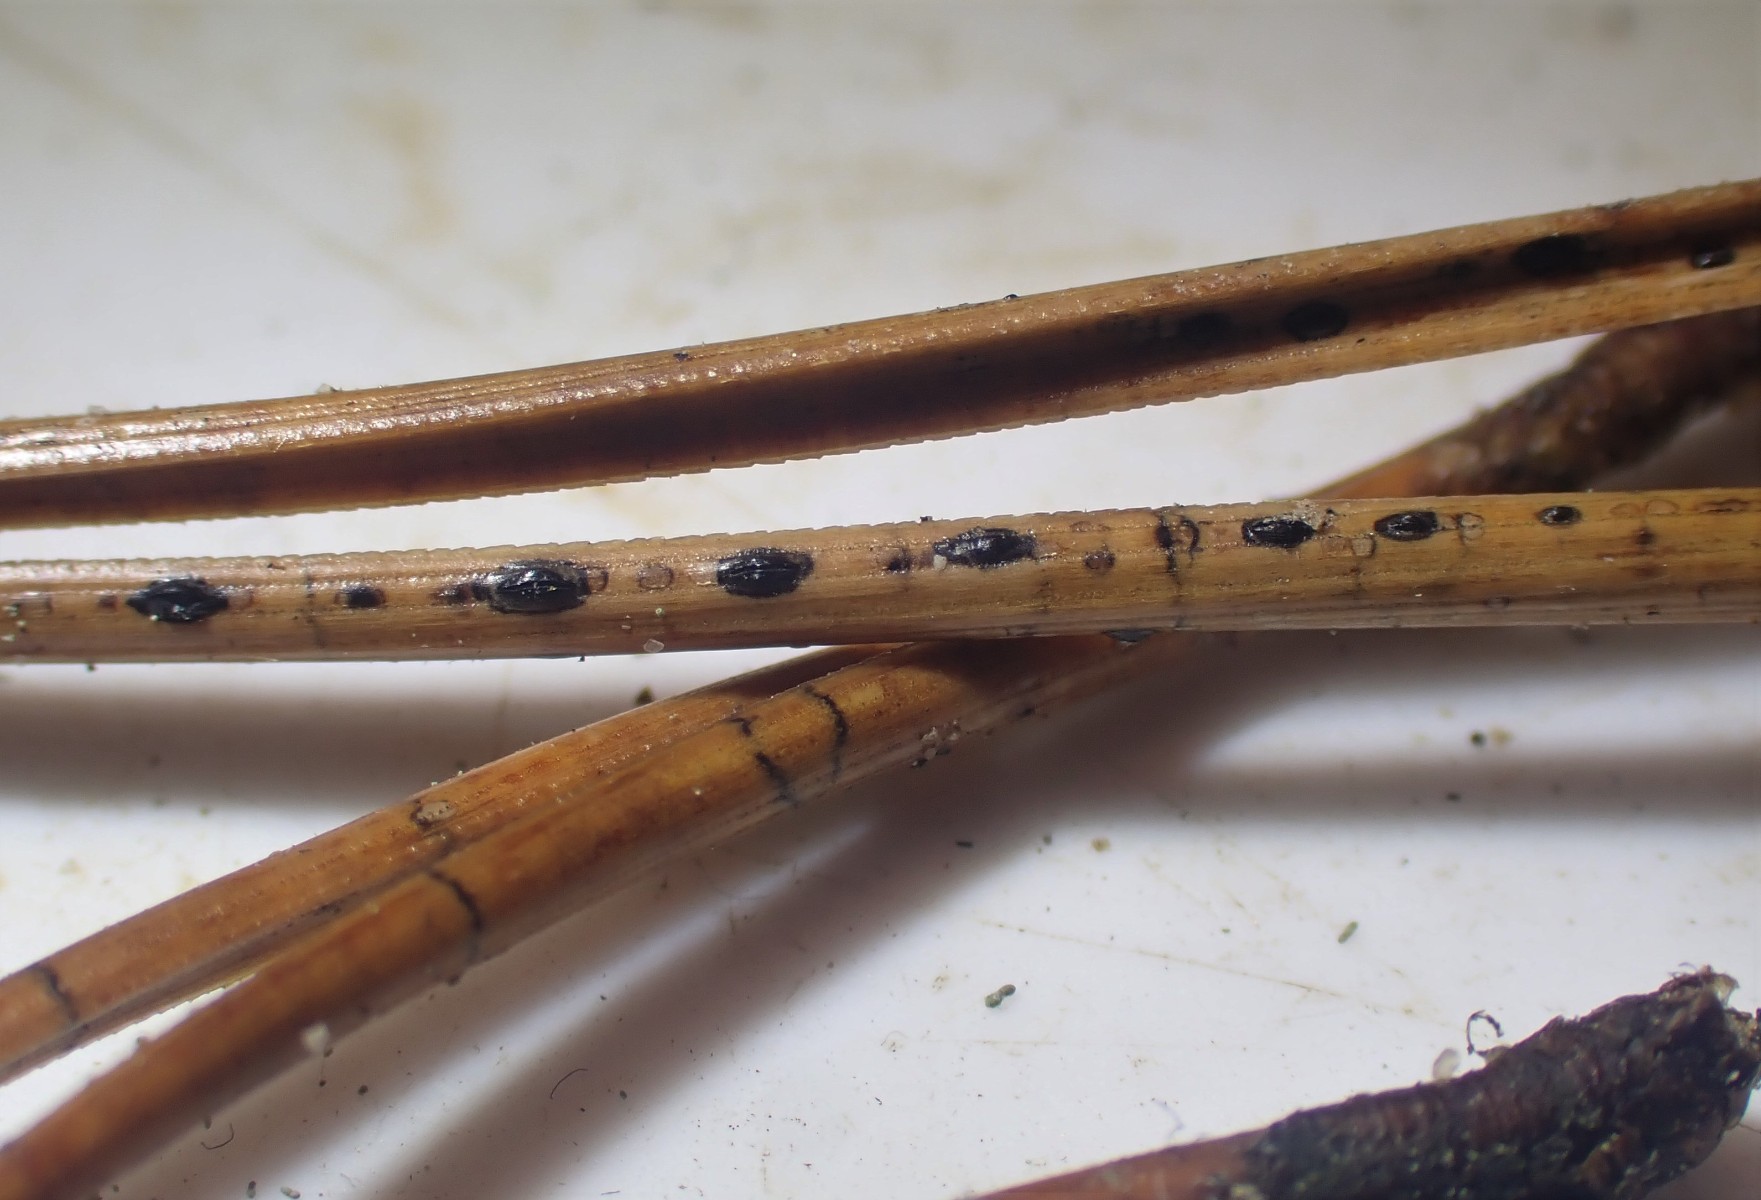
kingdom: Fungi
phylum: Ascomycota
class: Leotiomycetes
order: Rhytismatales
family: Rhytismataceae
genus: Lophodermium
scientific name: Lophodermium pinastri
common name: fyrre-fureplet
